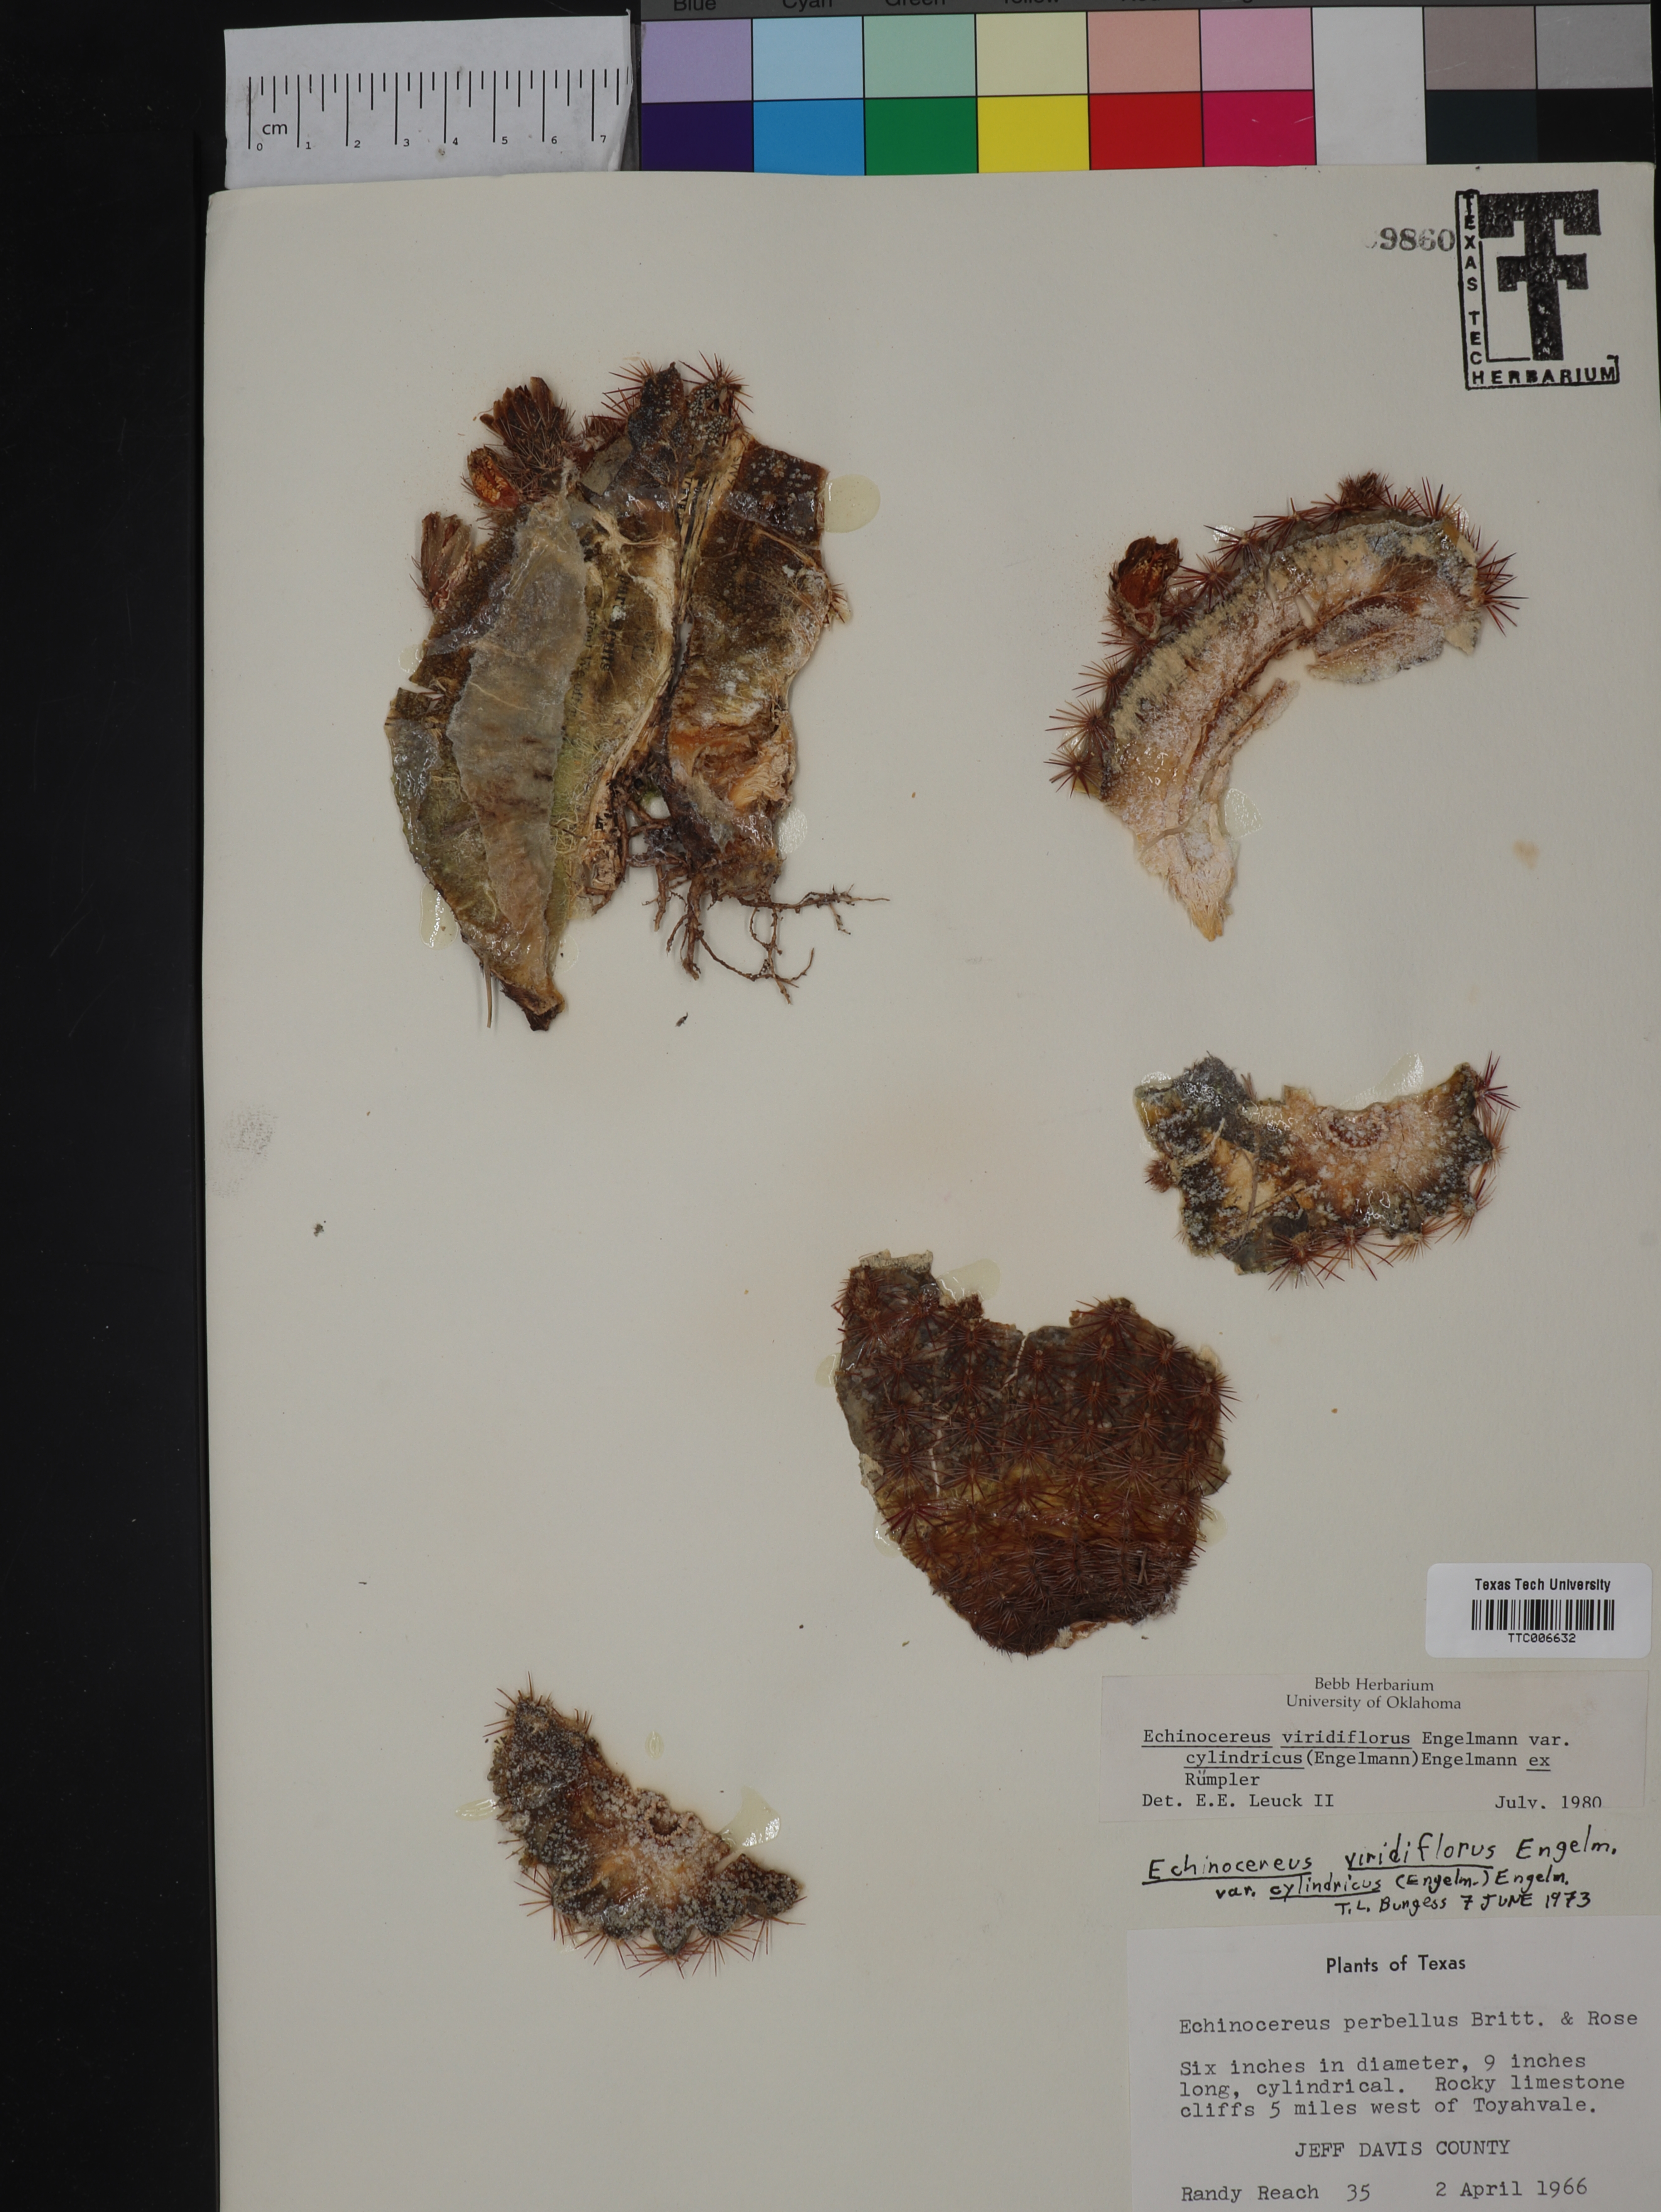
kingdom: Plantae
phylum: Tracheophyta
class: Magnoliopsida
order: Caryophyllales
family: Cactaceae
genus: Echinocereus
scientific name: Echinocereus viridiflorus
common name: Nylon hedgehog cactus
